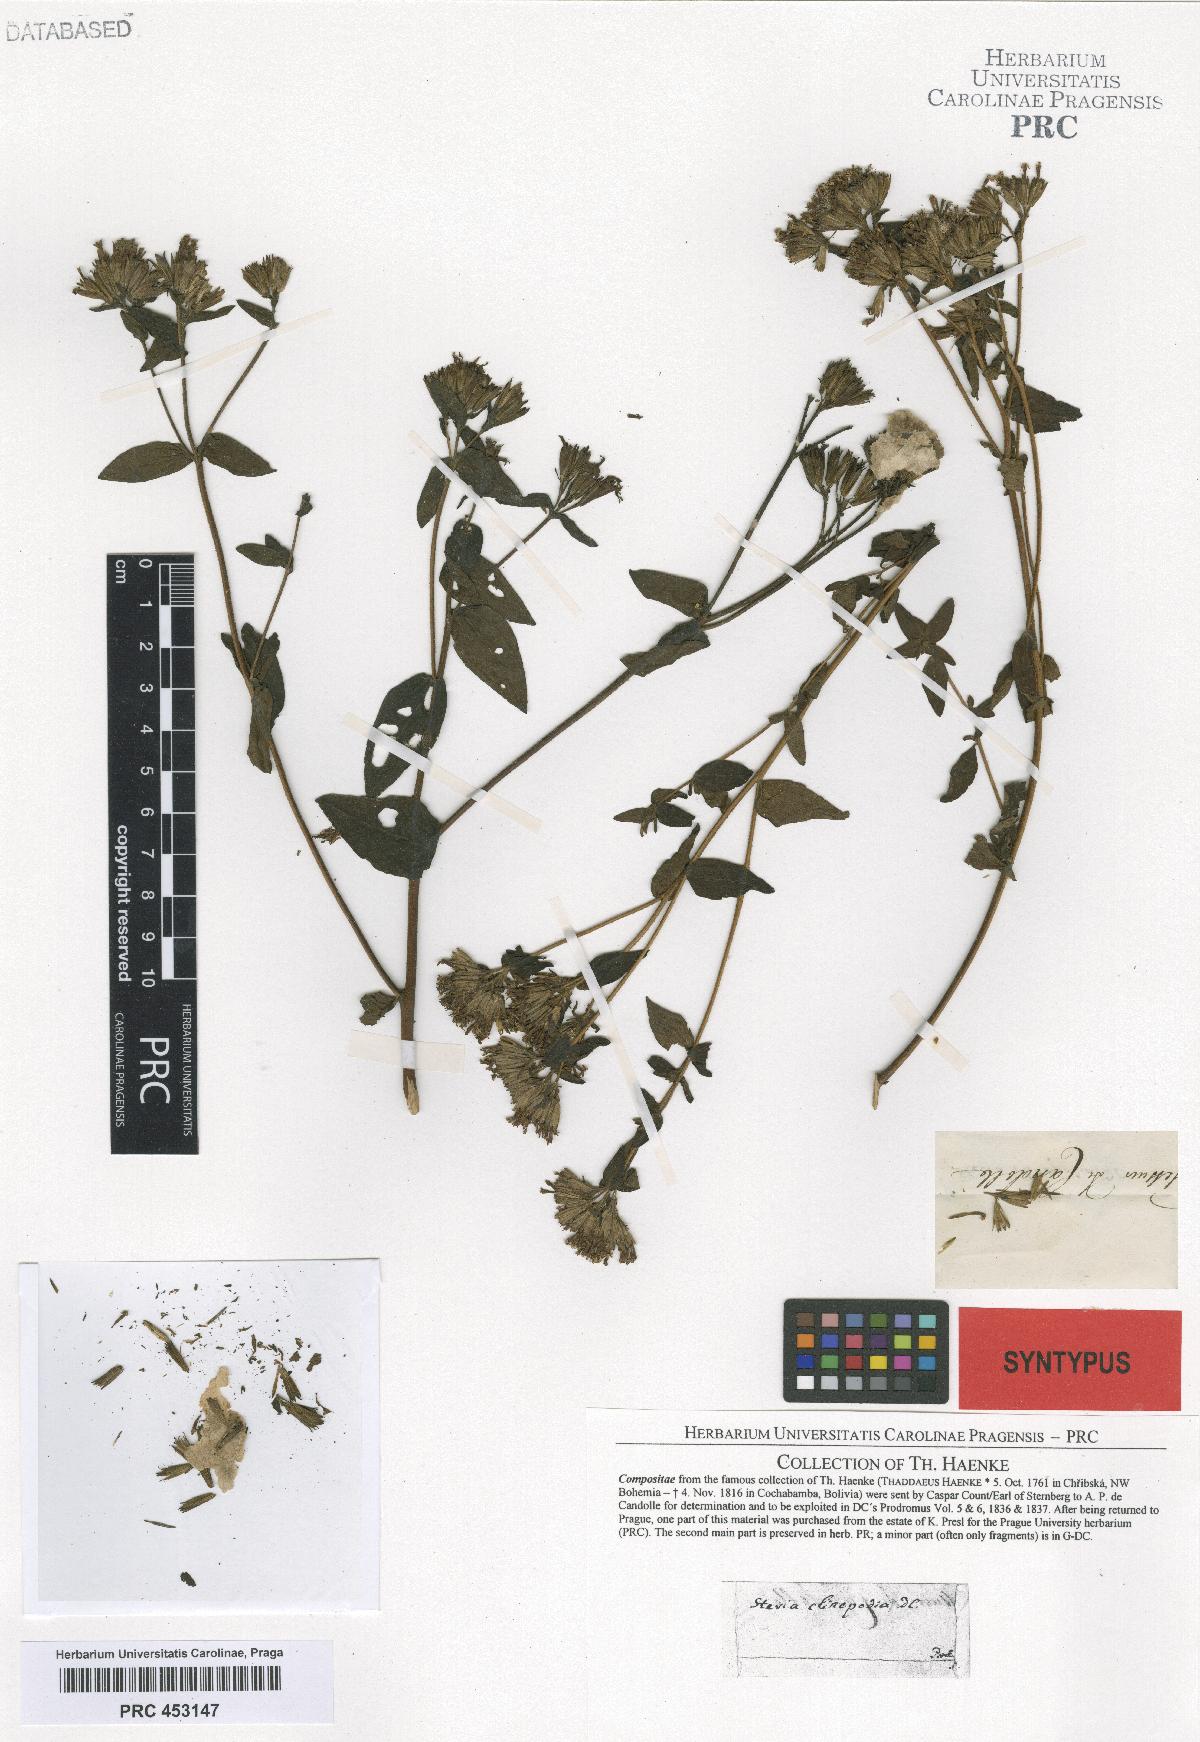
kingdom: Plantae
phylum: Tracheophyta
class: Magnoliopsida
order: Asterales
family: Asteraceae
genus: Stevia
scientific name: Stevia jorullensis
